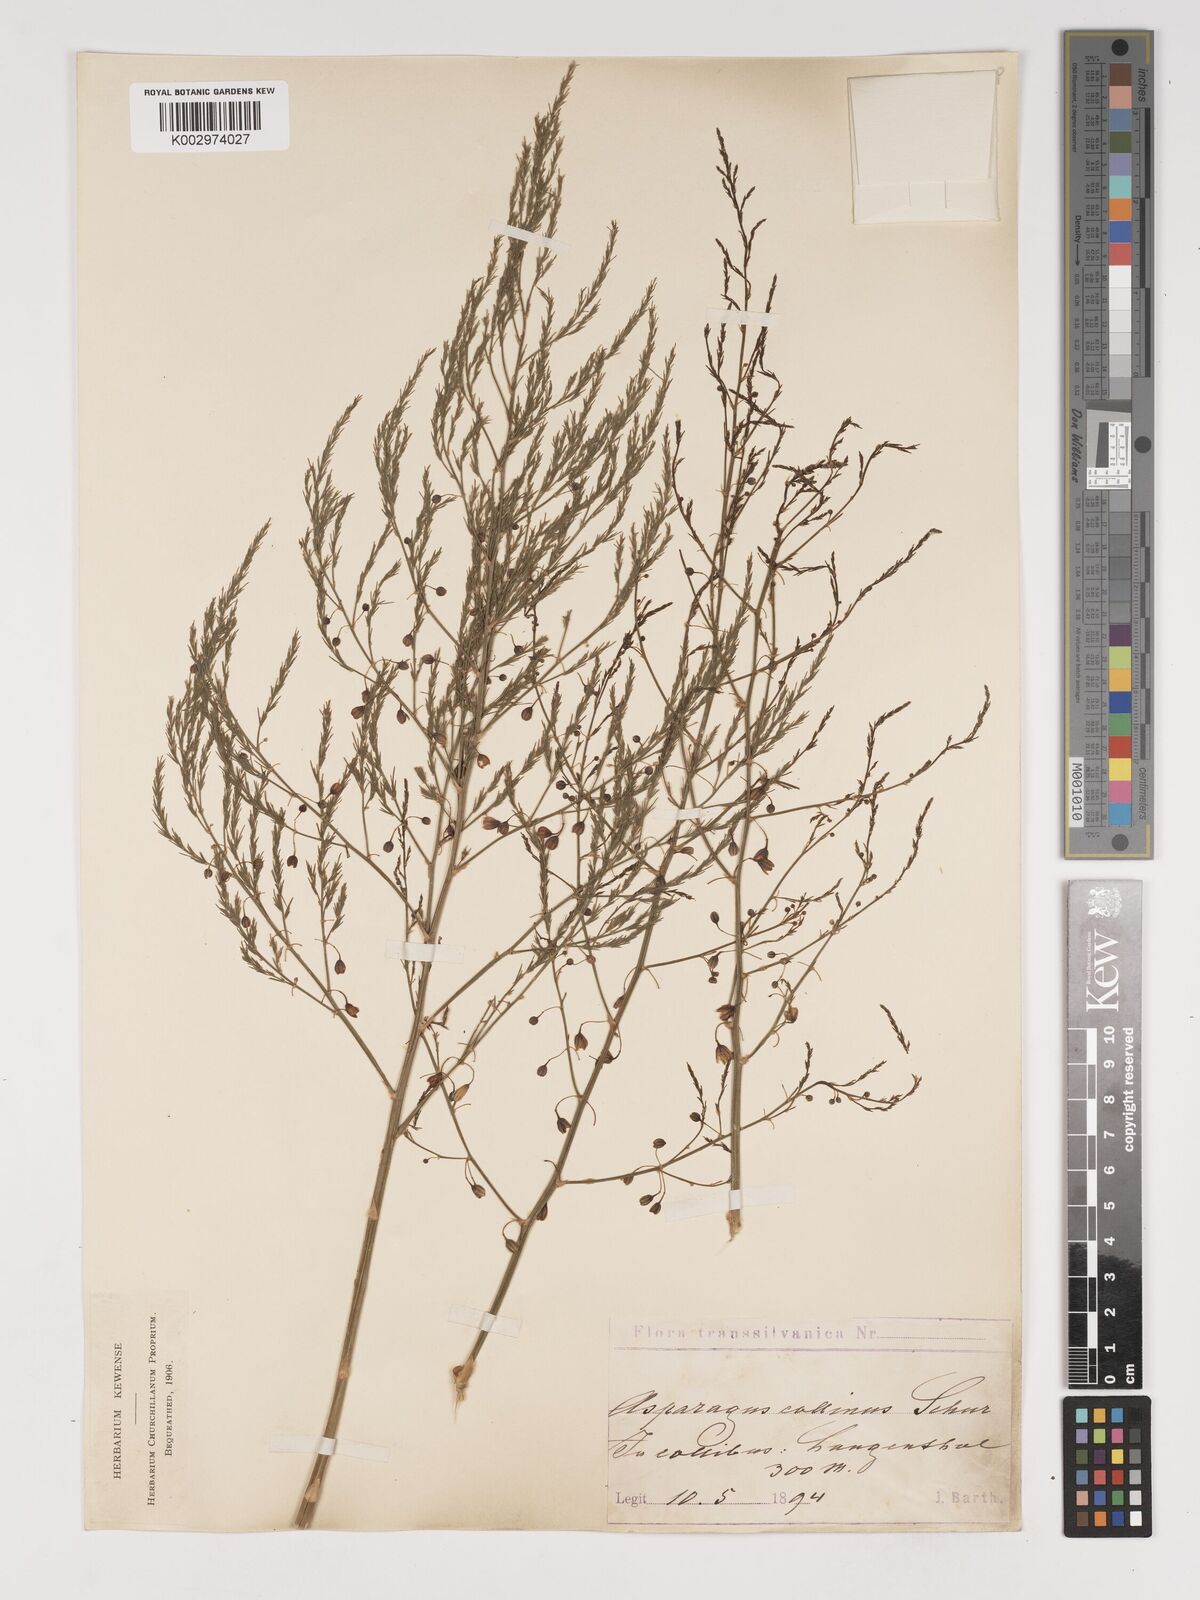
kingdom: Plantae
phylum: Tracheophyta
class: Liliopsida
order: Asparagales
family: Asparagaceae
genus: Asparagus
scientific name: Asparagus
